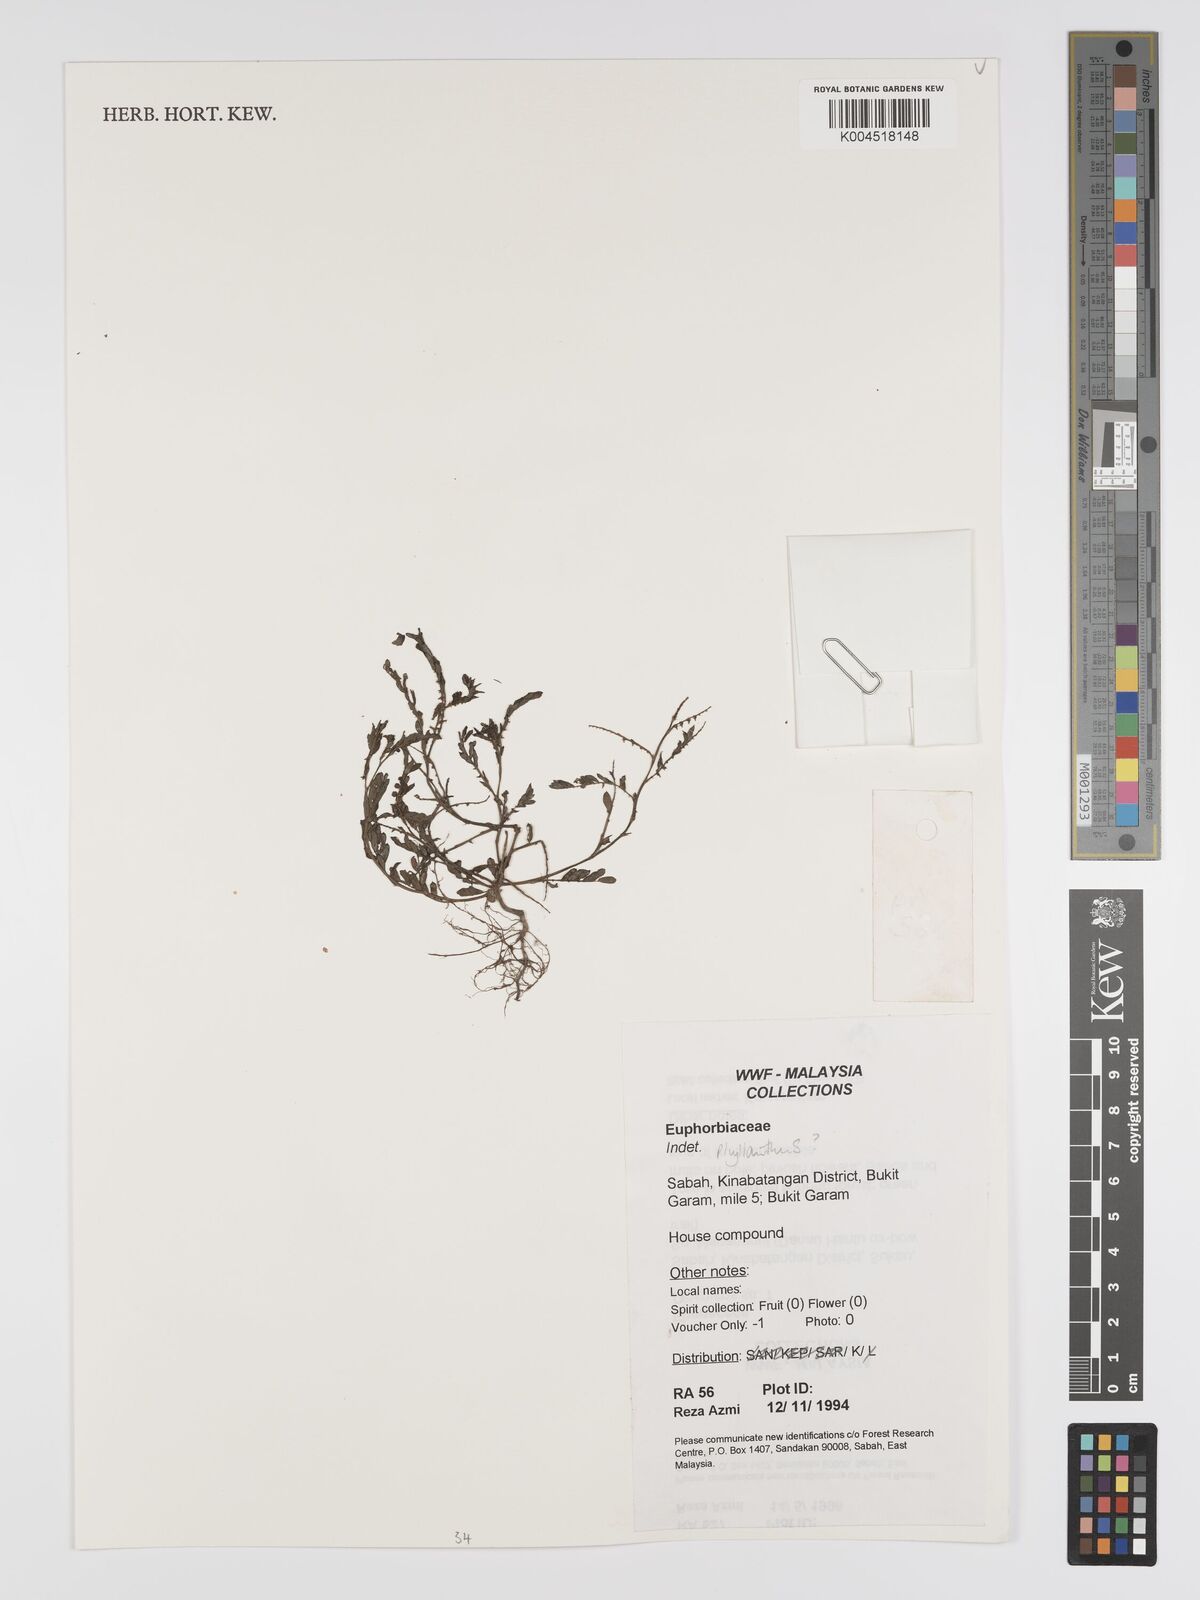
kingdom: Plantae
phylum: Tracheophyta
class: Magnoliopsida
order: Malpighiales
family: Phyllanthaceae
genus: Phyllanthus
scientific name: Phyllanthus
